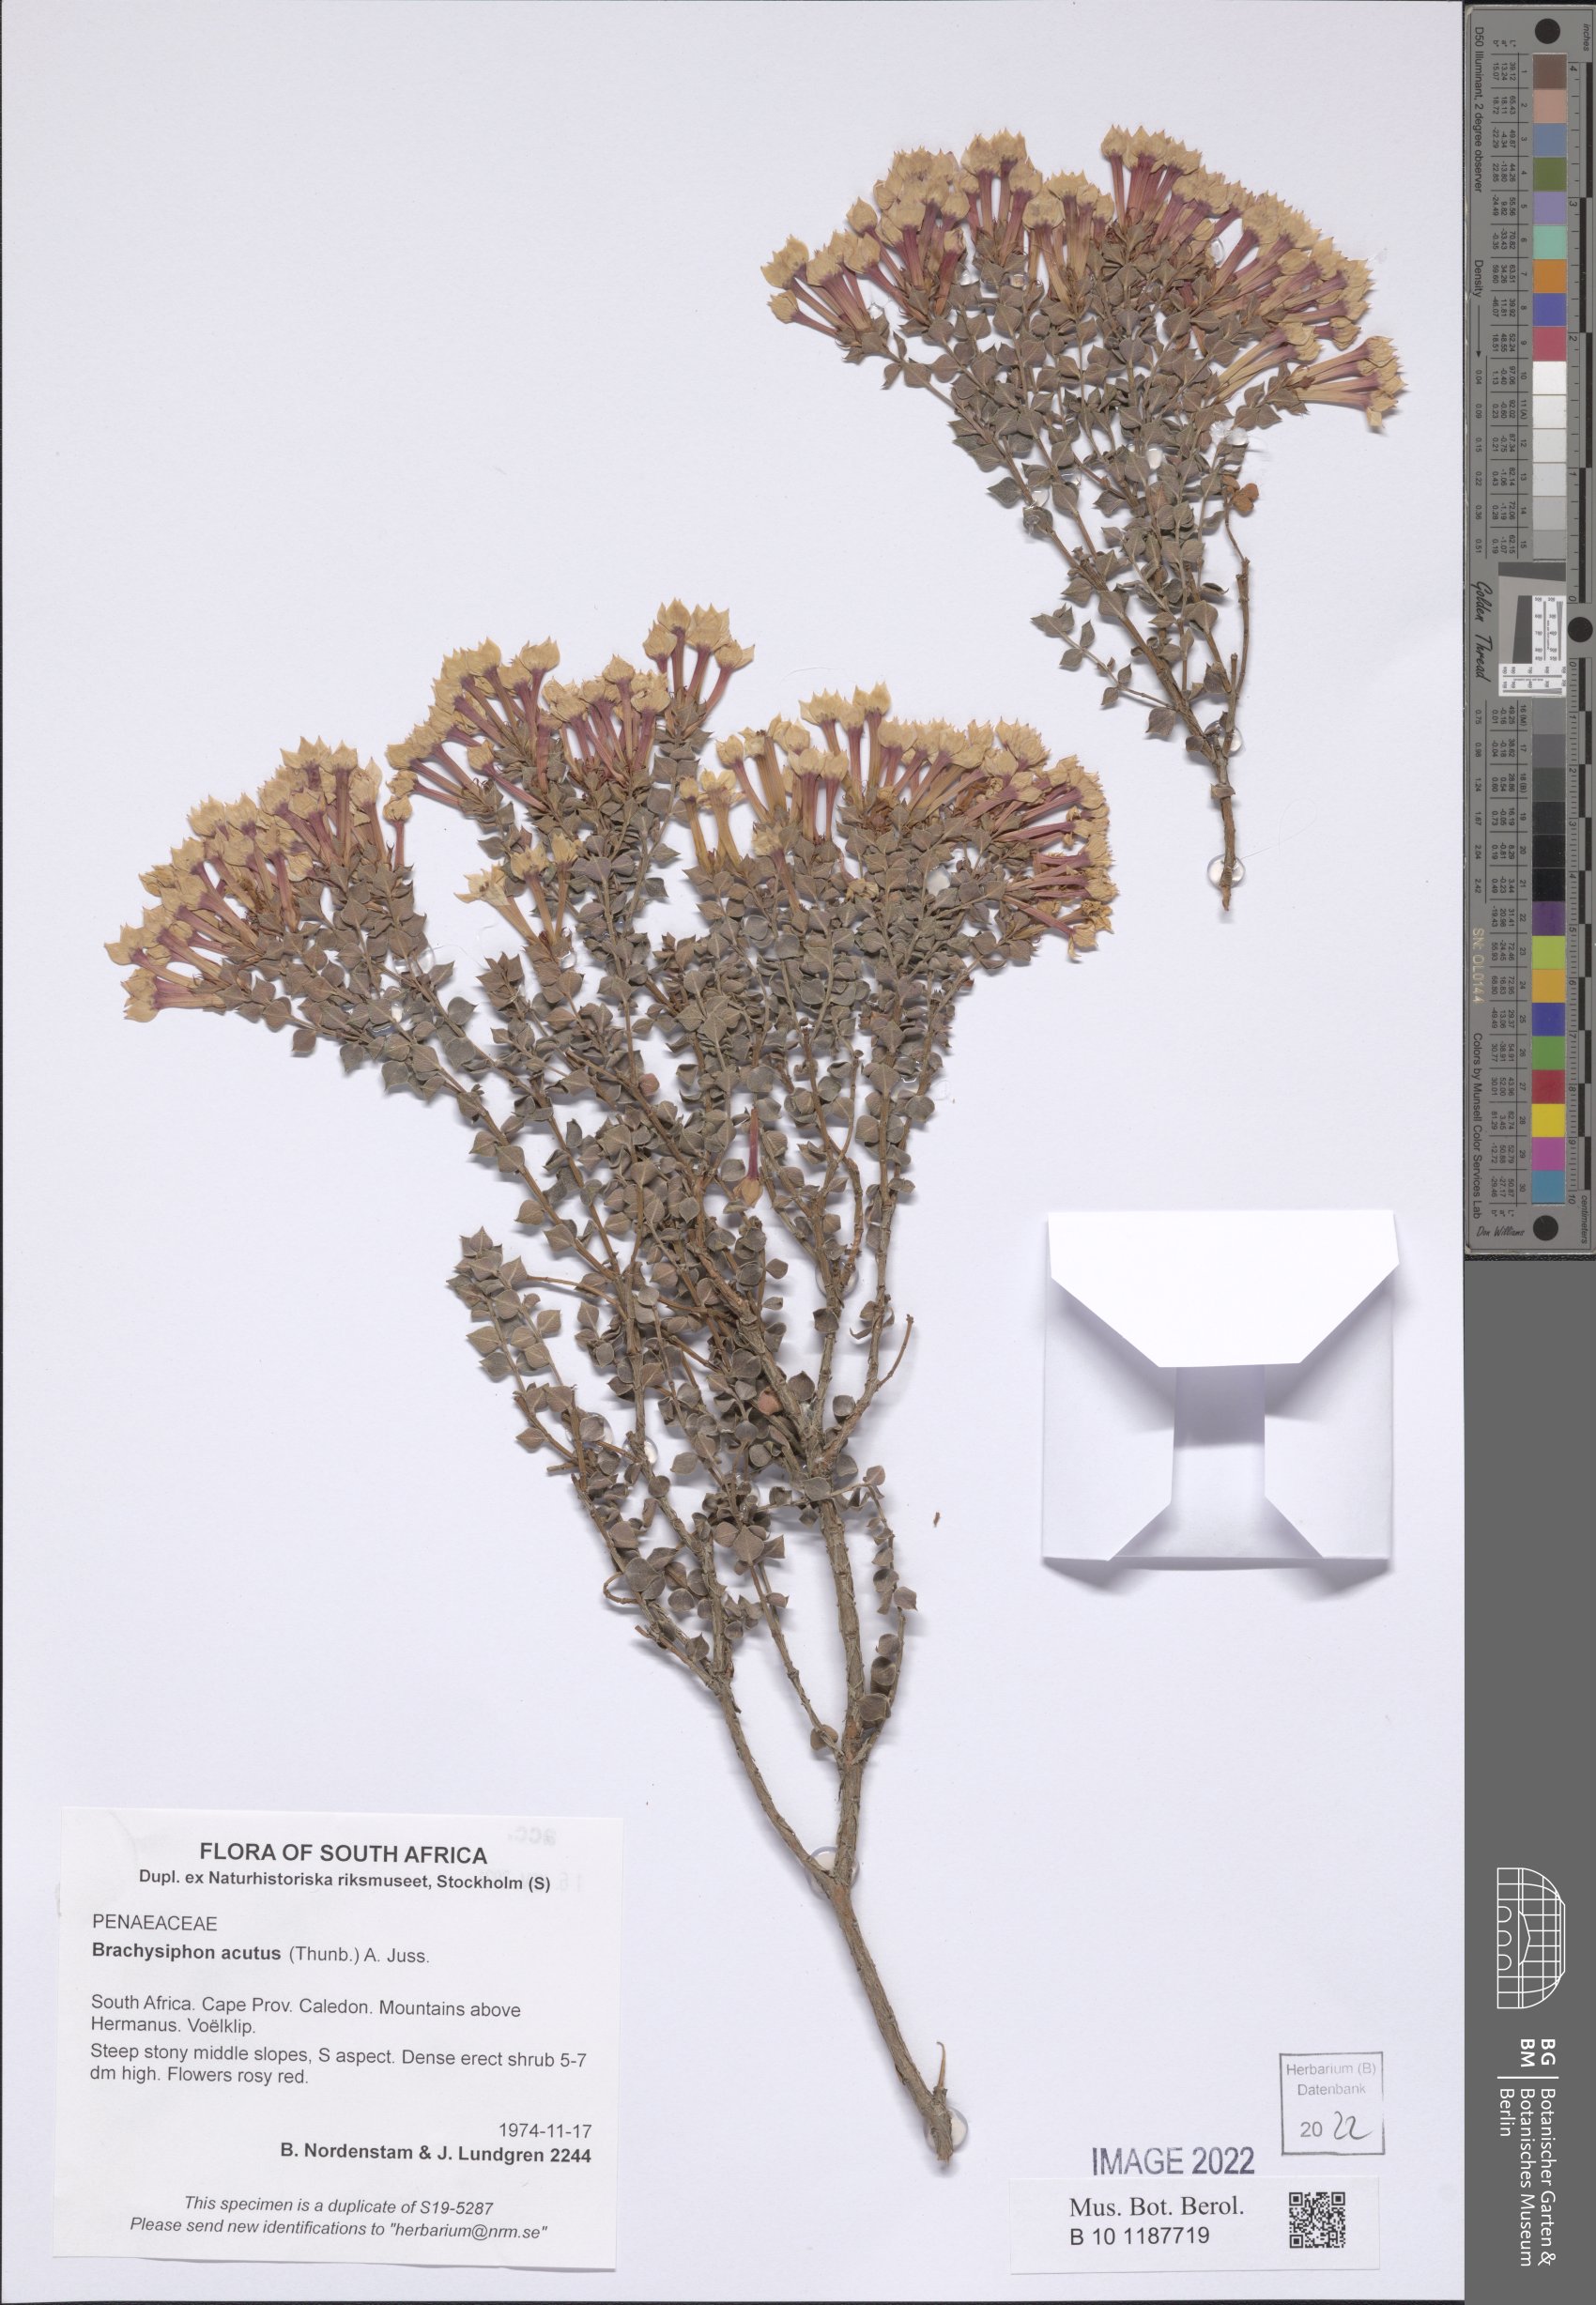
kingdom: Plantae
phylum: Tracheophyta
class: Magnoliopsida
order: Myrtales
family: Penaeaceae
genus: Brachysiphon
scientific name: Brachysiphon acutus
